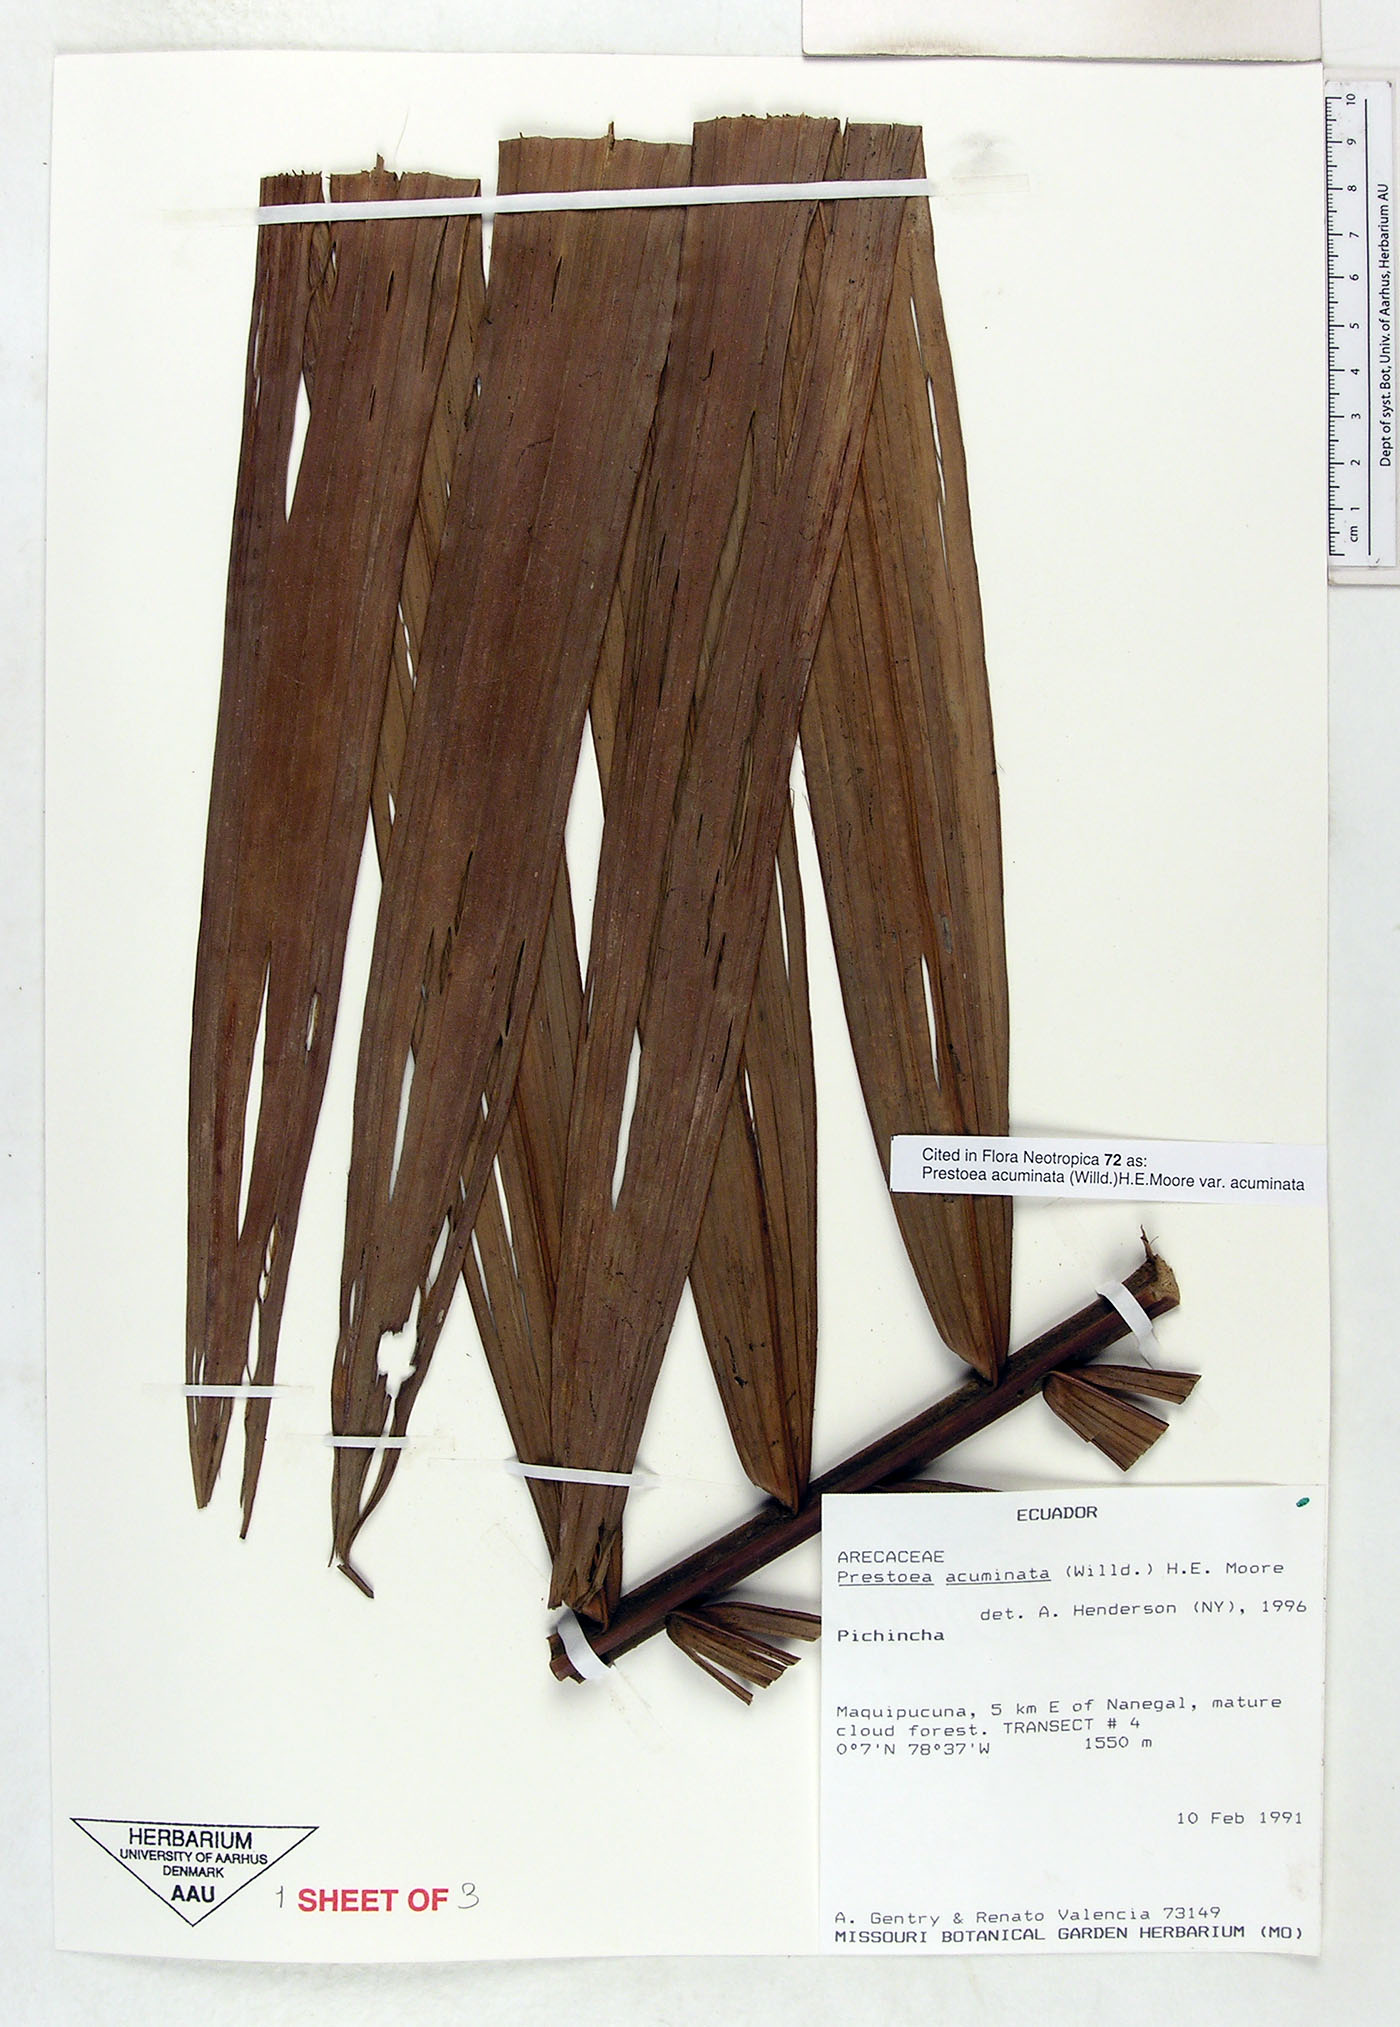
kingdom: Plantae
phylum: Tracheophyta
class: Liliopsida
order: Arecales
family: Arecaceae
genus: Prestoea
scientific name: Prestoea acuminata
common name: Sierran palm
